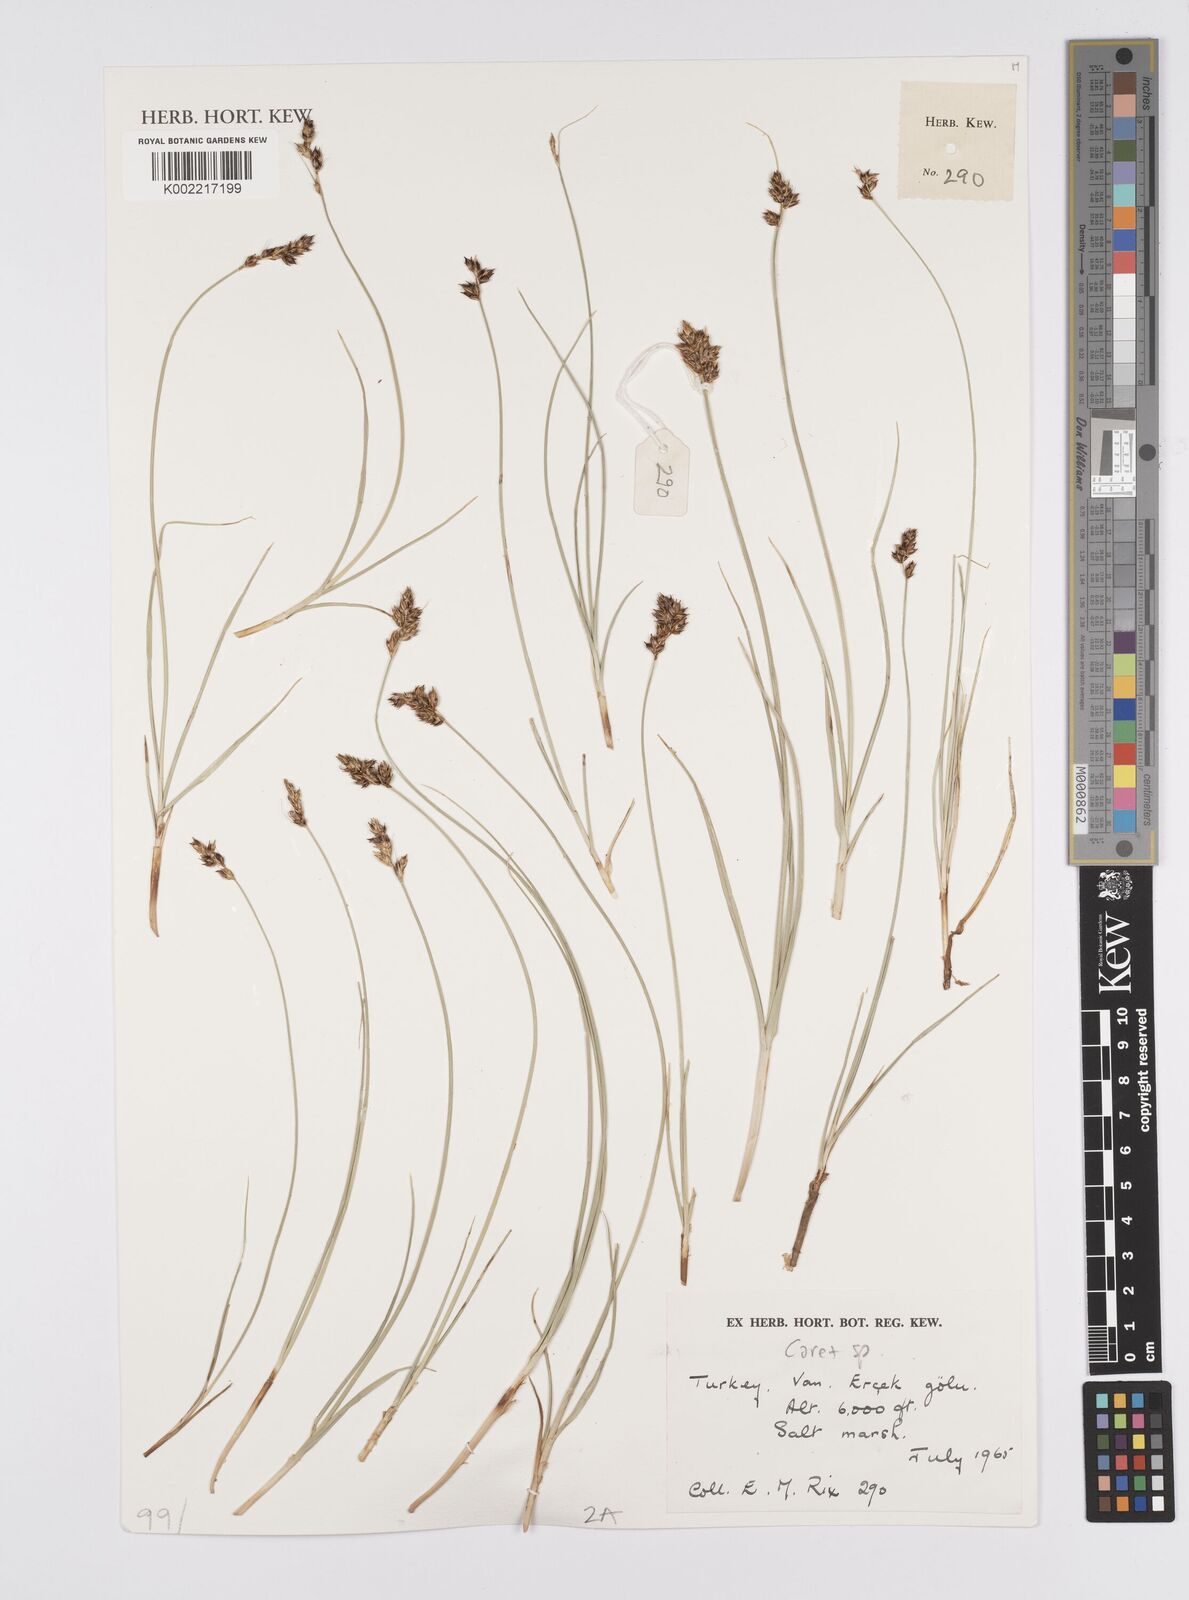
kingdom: Plantae
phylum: Tracheophyta
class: Liliopsida
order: Poales
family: Cyperaceae
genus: Carex
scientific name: Carex
